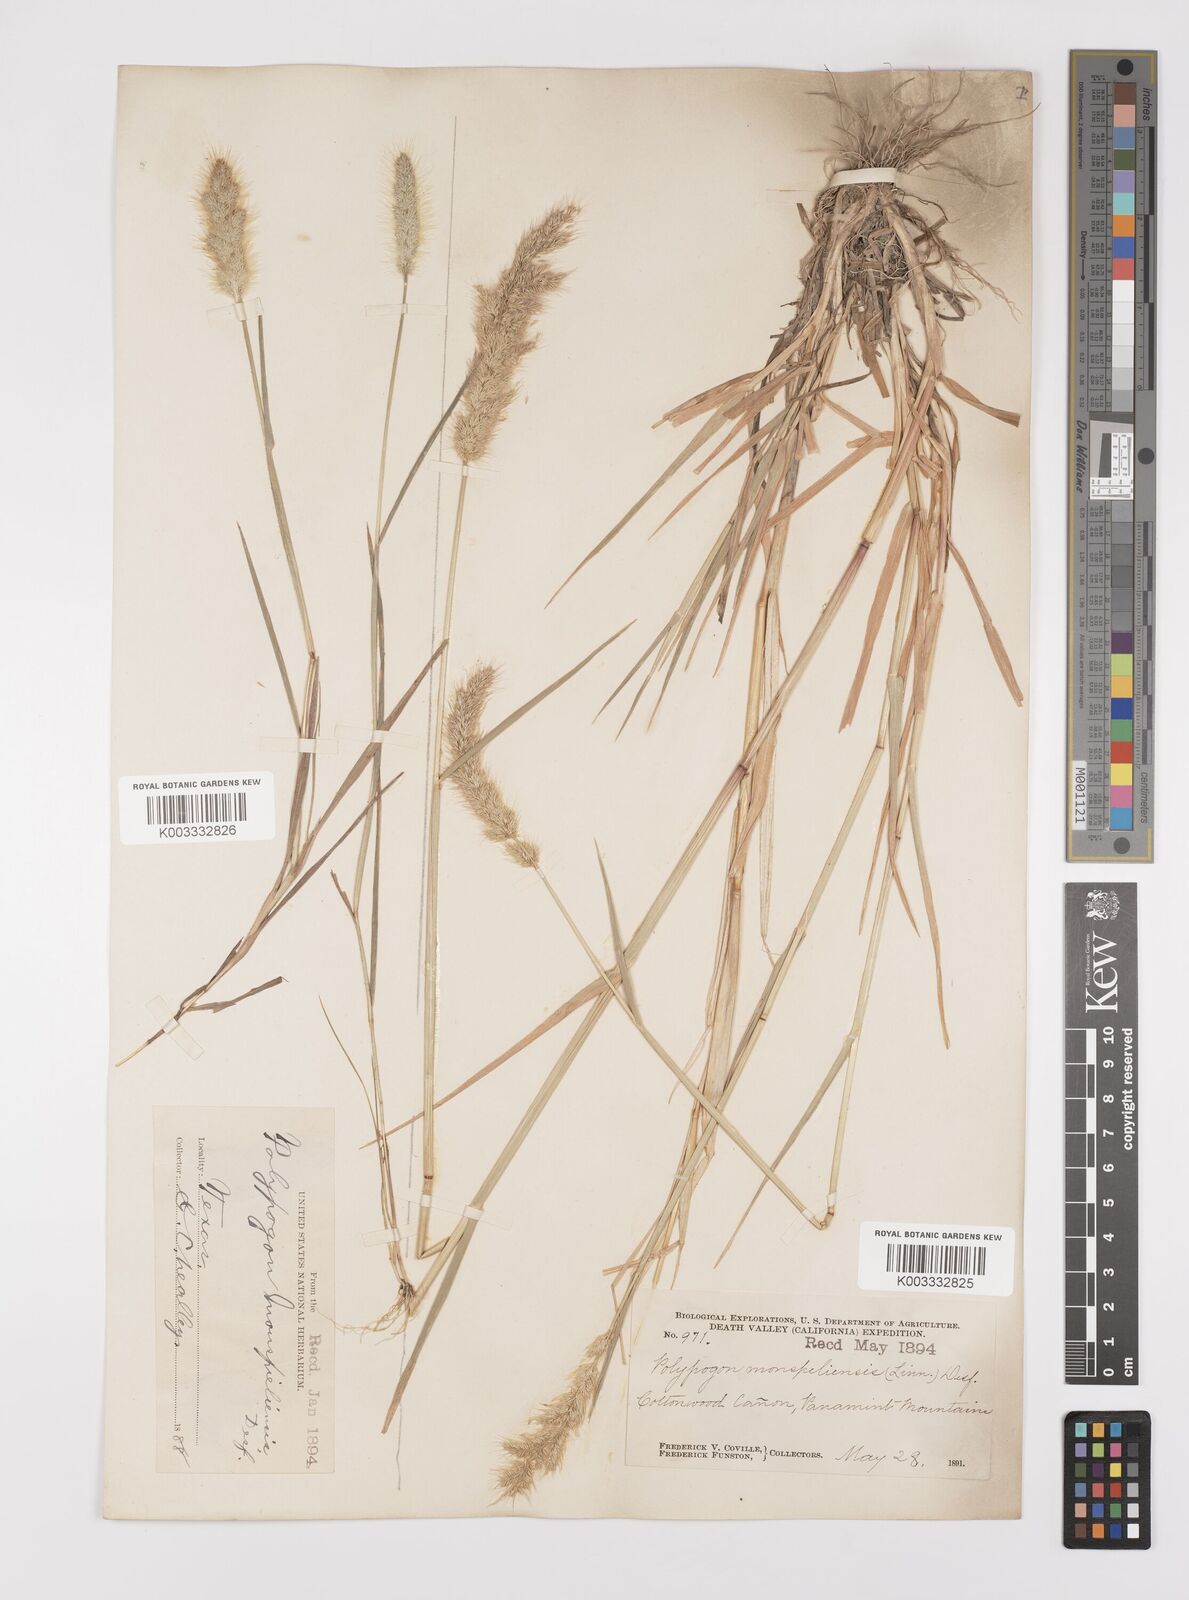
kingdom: Plantae
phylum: Tracheophyta
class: Liliopsida
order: Poales
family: Poaceae
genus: Polypogon
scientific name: Polypogon monspeliensis
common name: Annual rabbitsfoot grass
